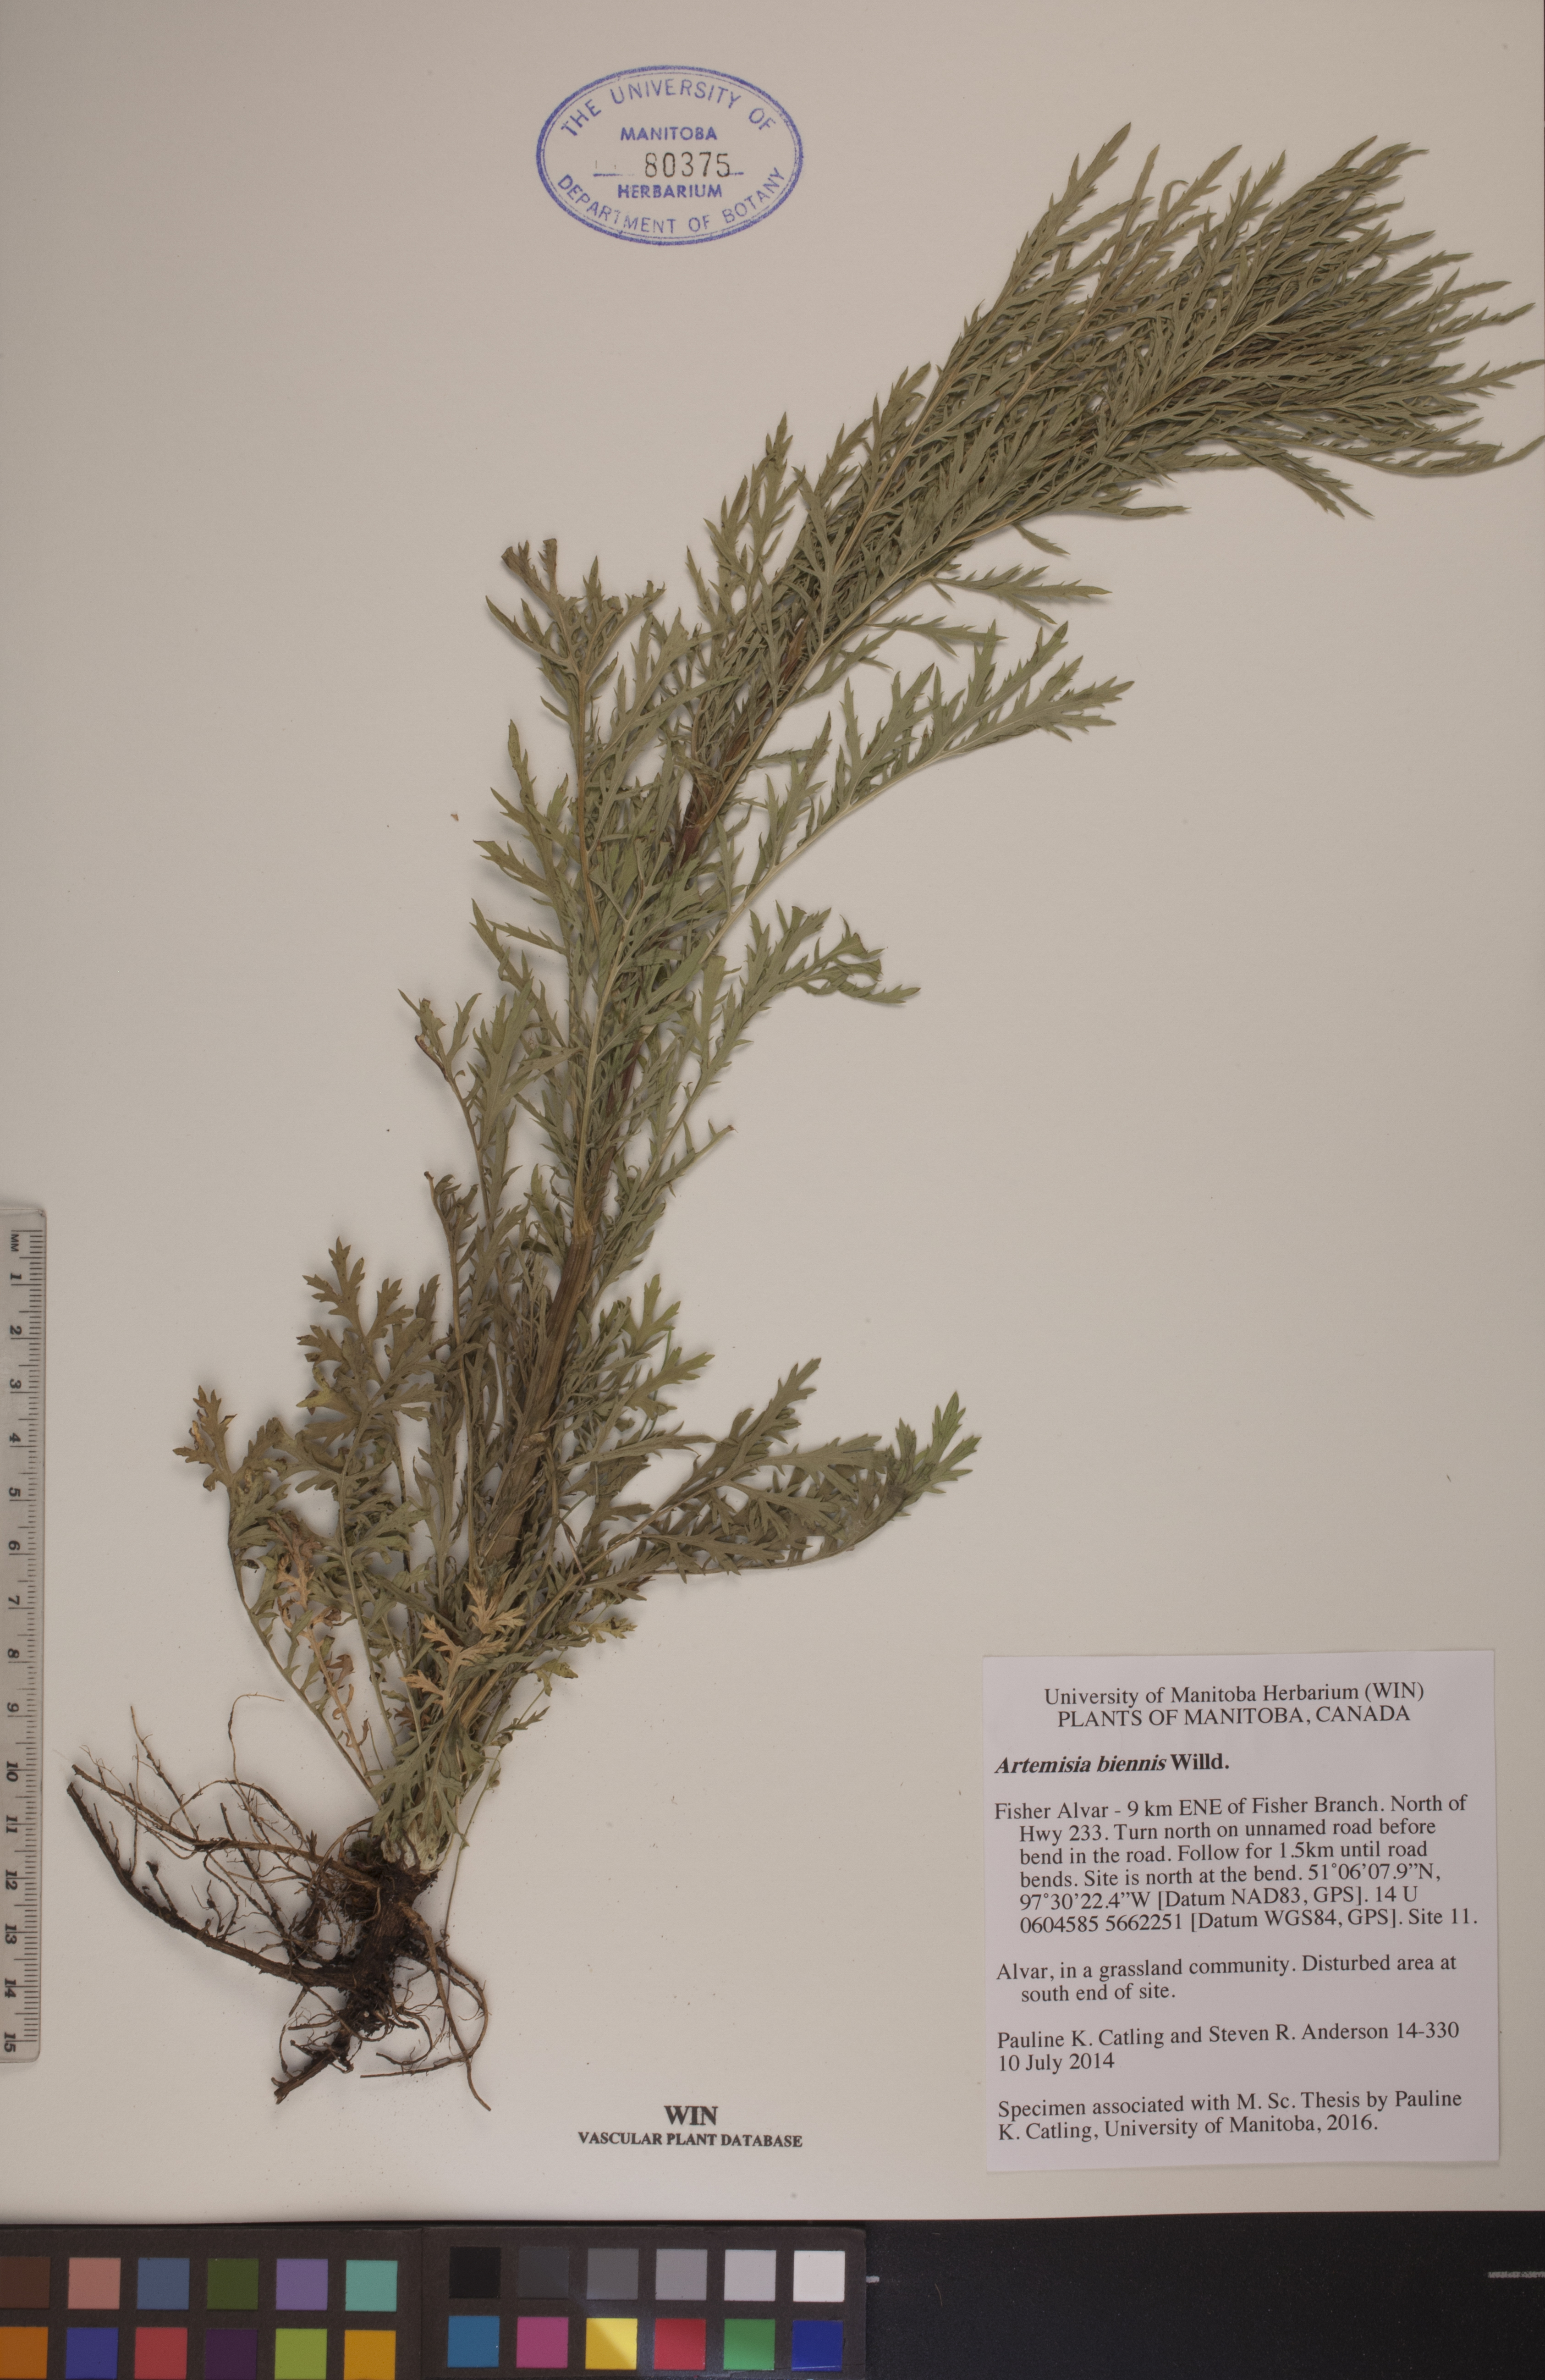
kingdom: Plantae
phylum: Tracheophyta
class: Magnoliopsida
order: Asterales
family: Asteraceae
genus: Artemisia
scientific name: Artemisia biennis
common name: Biennial wormwood
